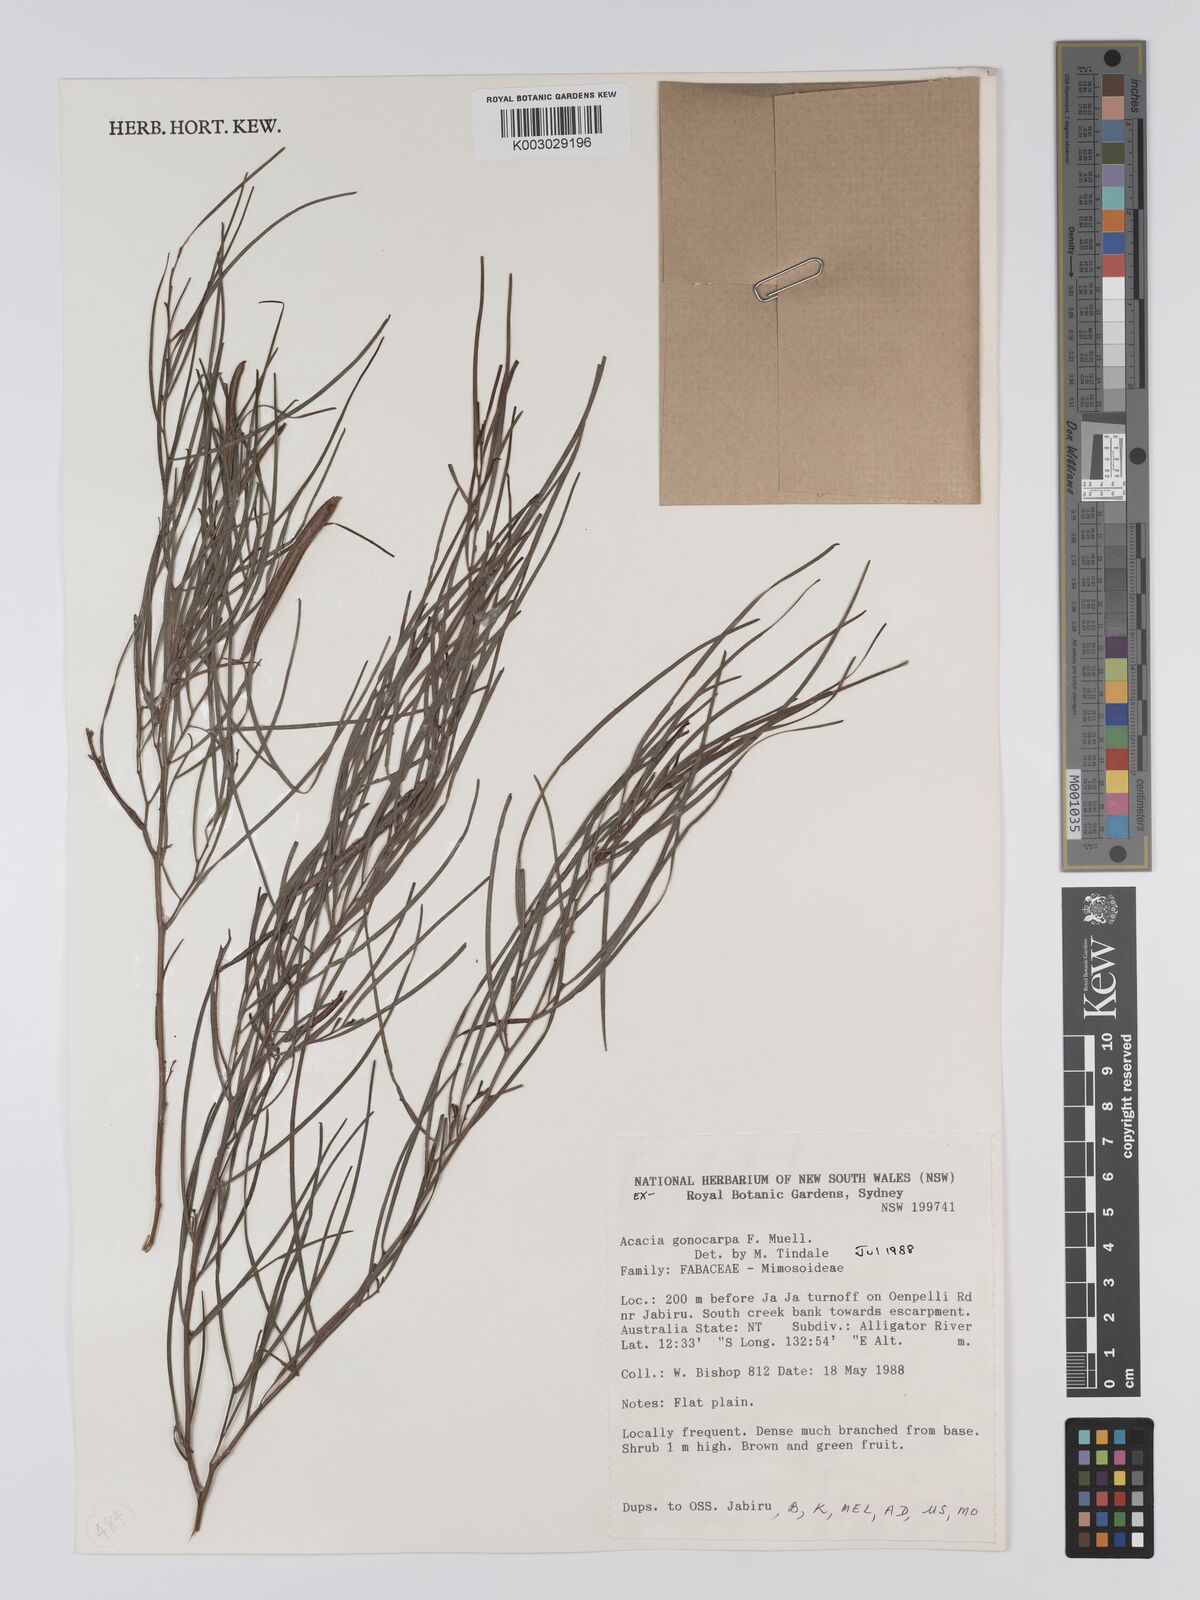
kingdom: Plantae
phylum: Tracheophyta
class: Magnoliopsida
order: Fabales
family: Fabaceae
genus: Acacia
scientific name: Acacia gonocarpa
